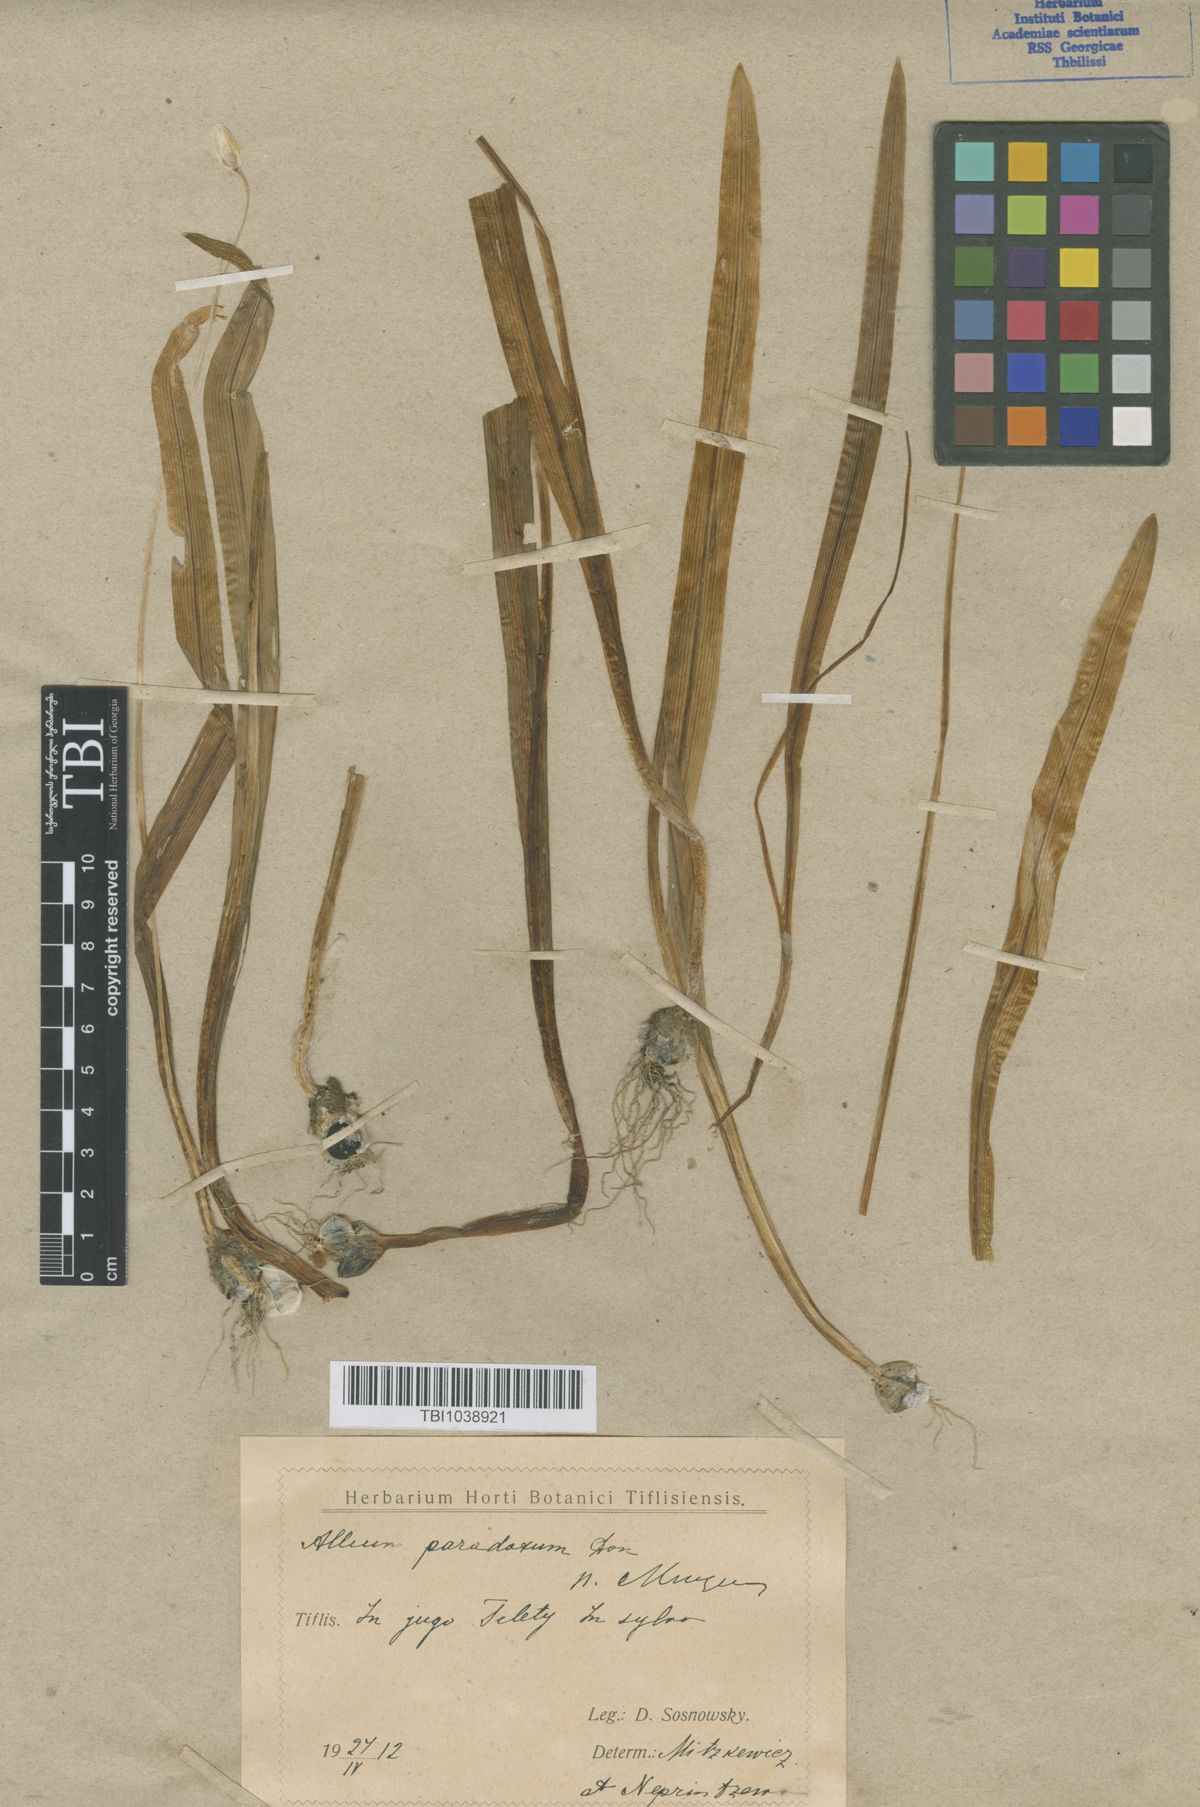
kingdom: Plantae
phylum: Tracheophyta
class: Liliopsida
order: Asparagales
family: Amaryllidaceae
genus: Allium
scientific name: Allium paradoxum
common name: Few-flowered garlic
